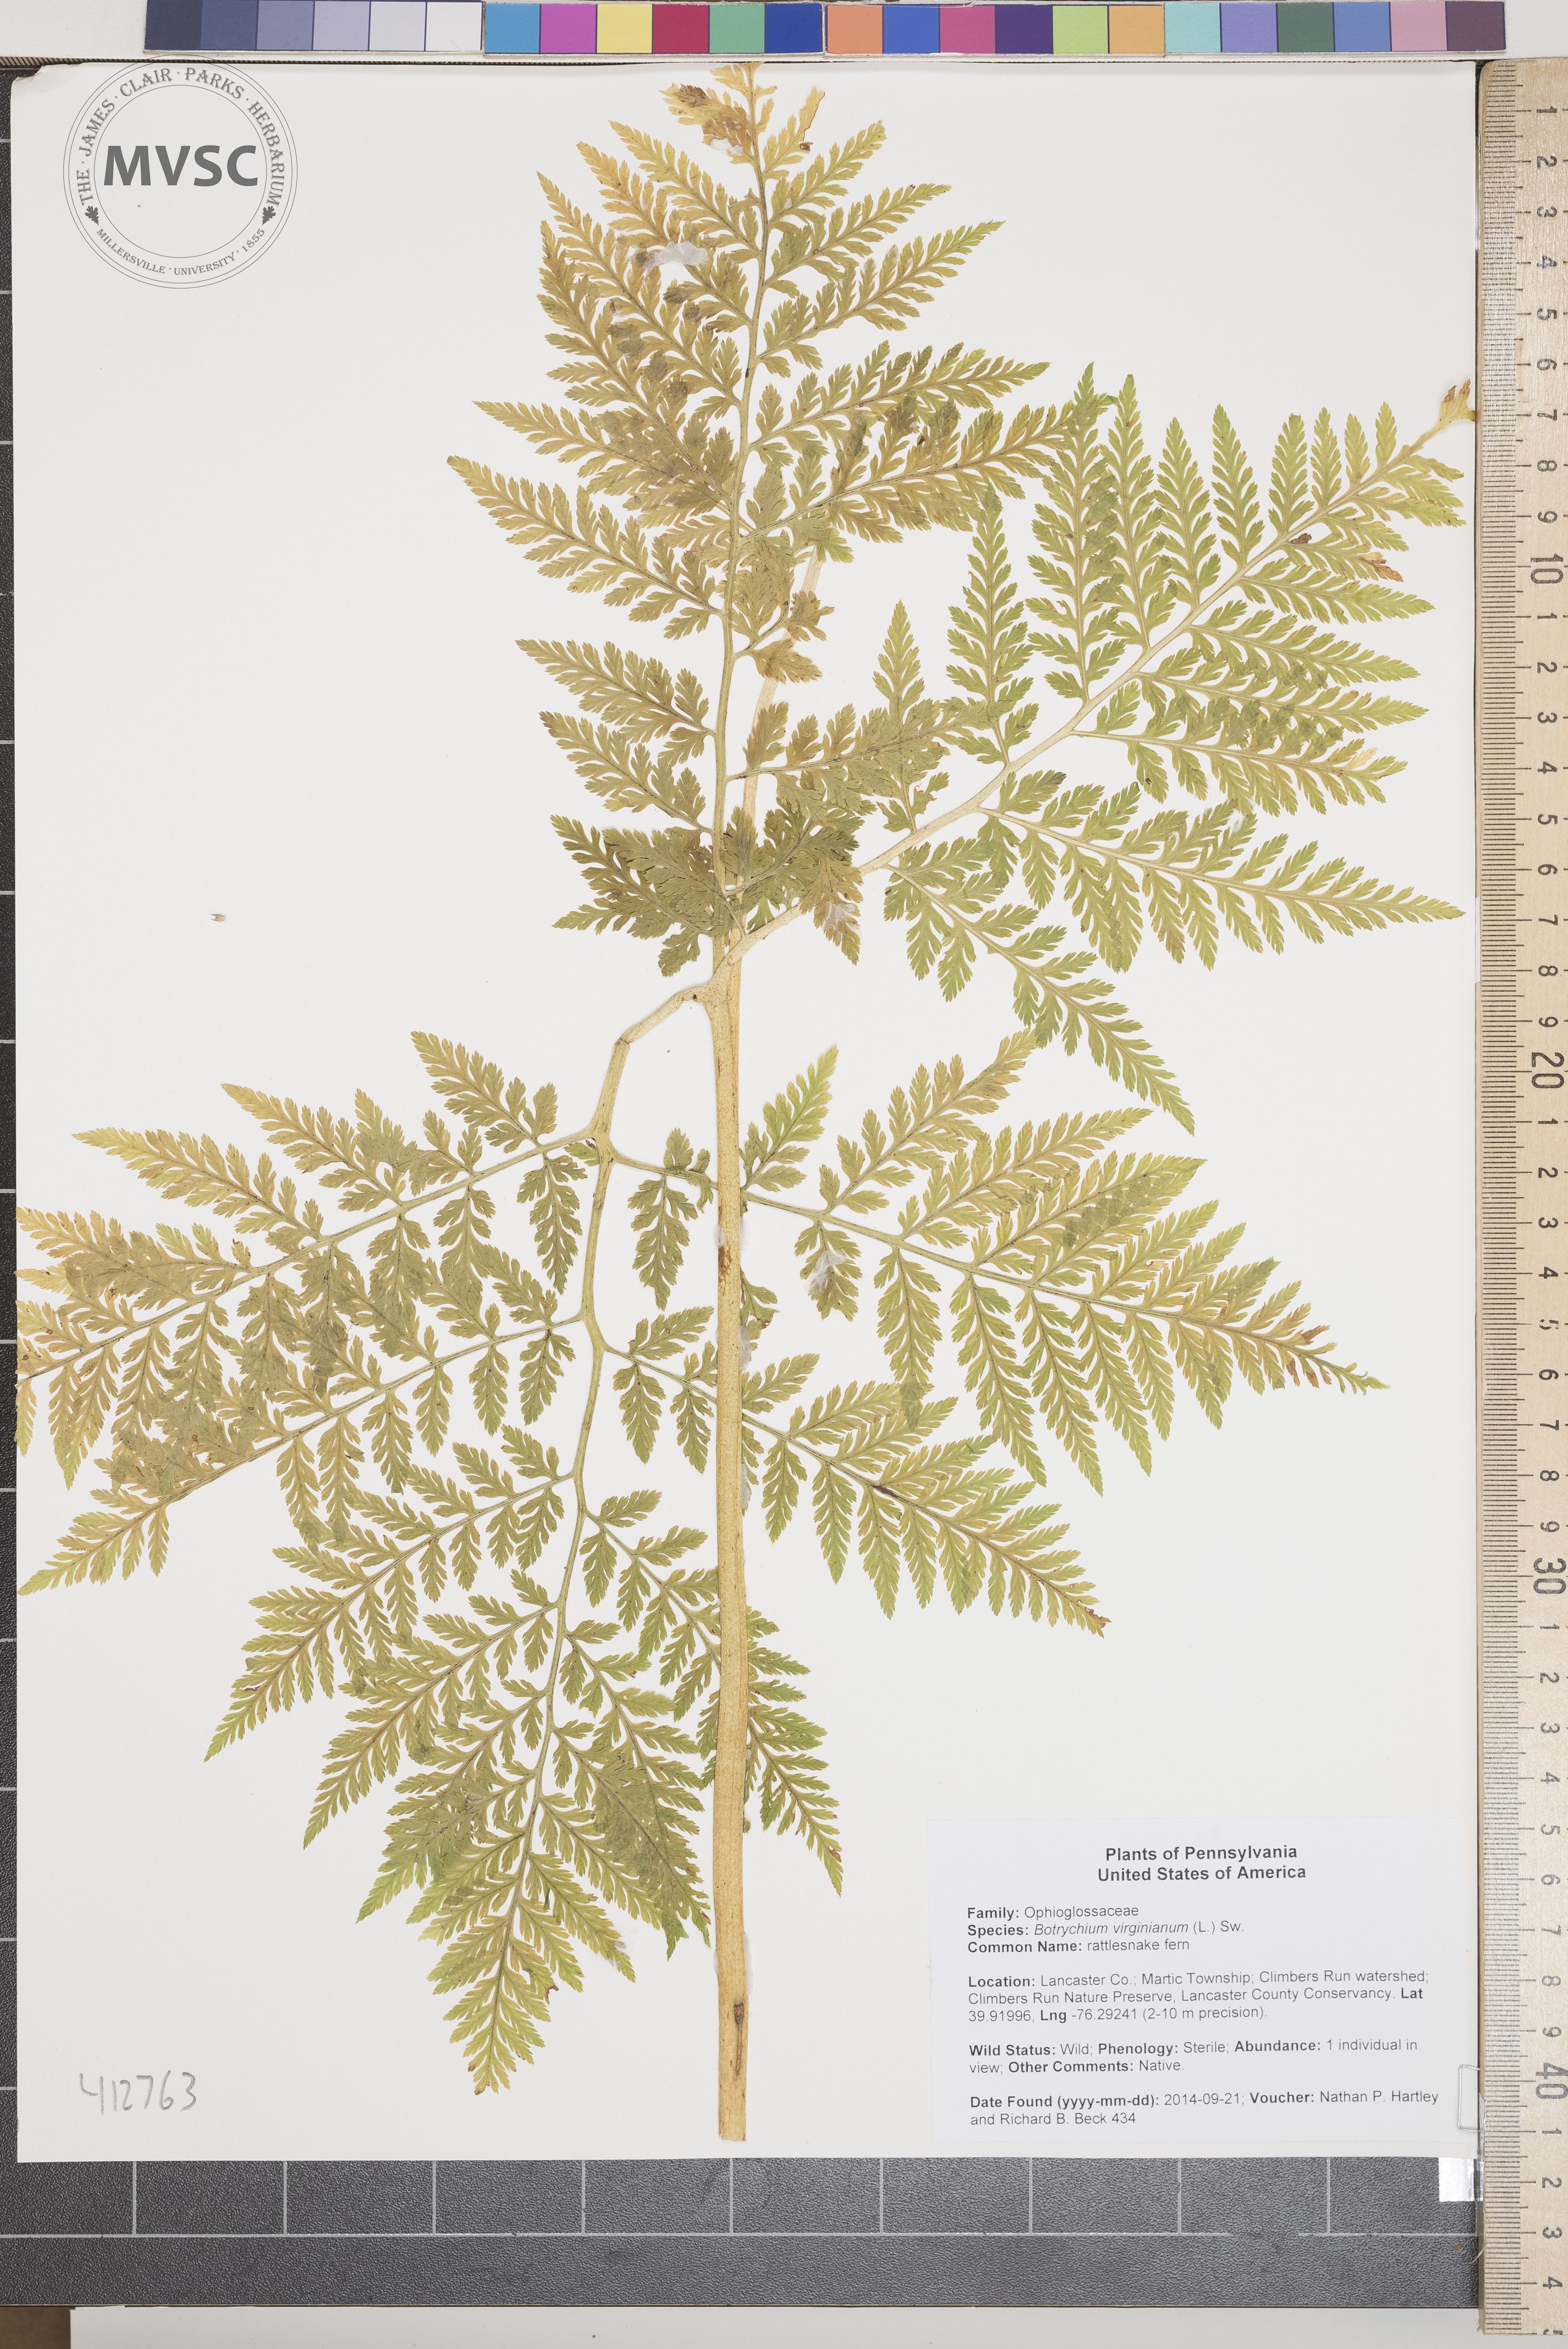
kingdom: Plantae
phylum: Tracheophyta
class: Polypodiopsida
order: Ophioglossales
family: Ophioglossaceae
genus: Botrypus
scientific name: Botrypus virginianus
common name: rattlesnake fern
